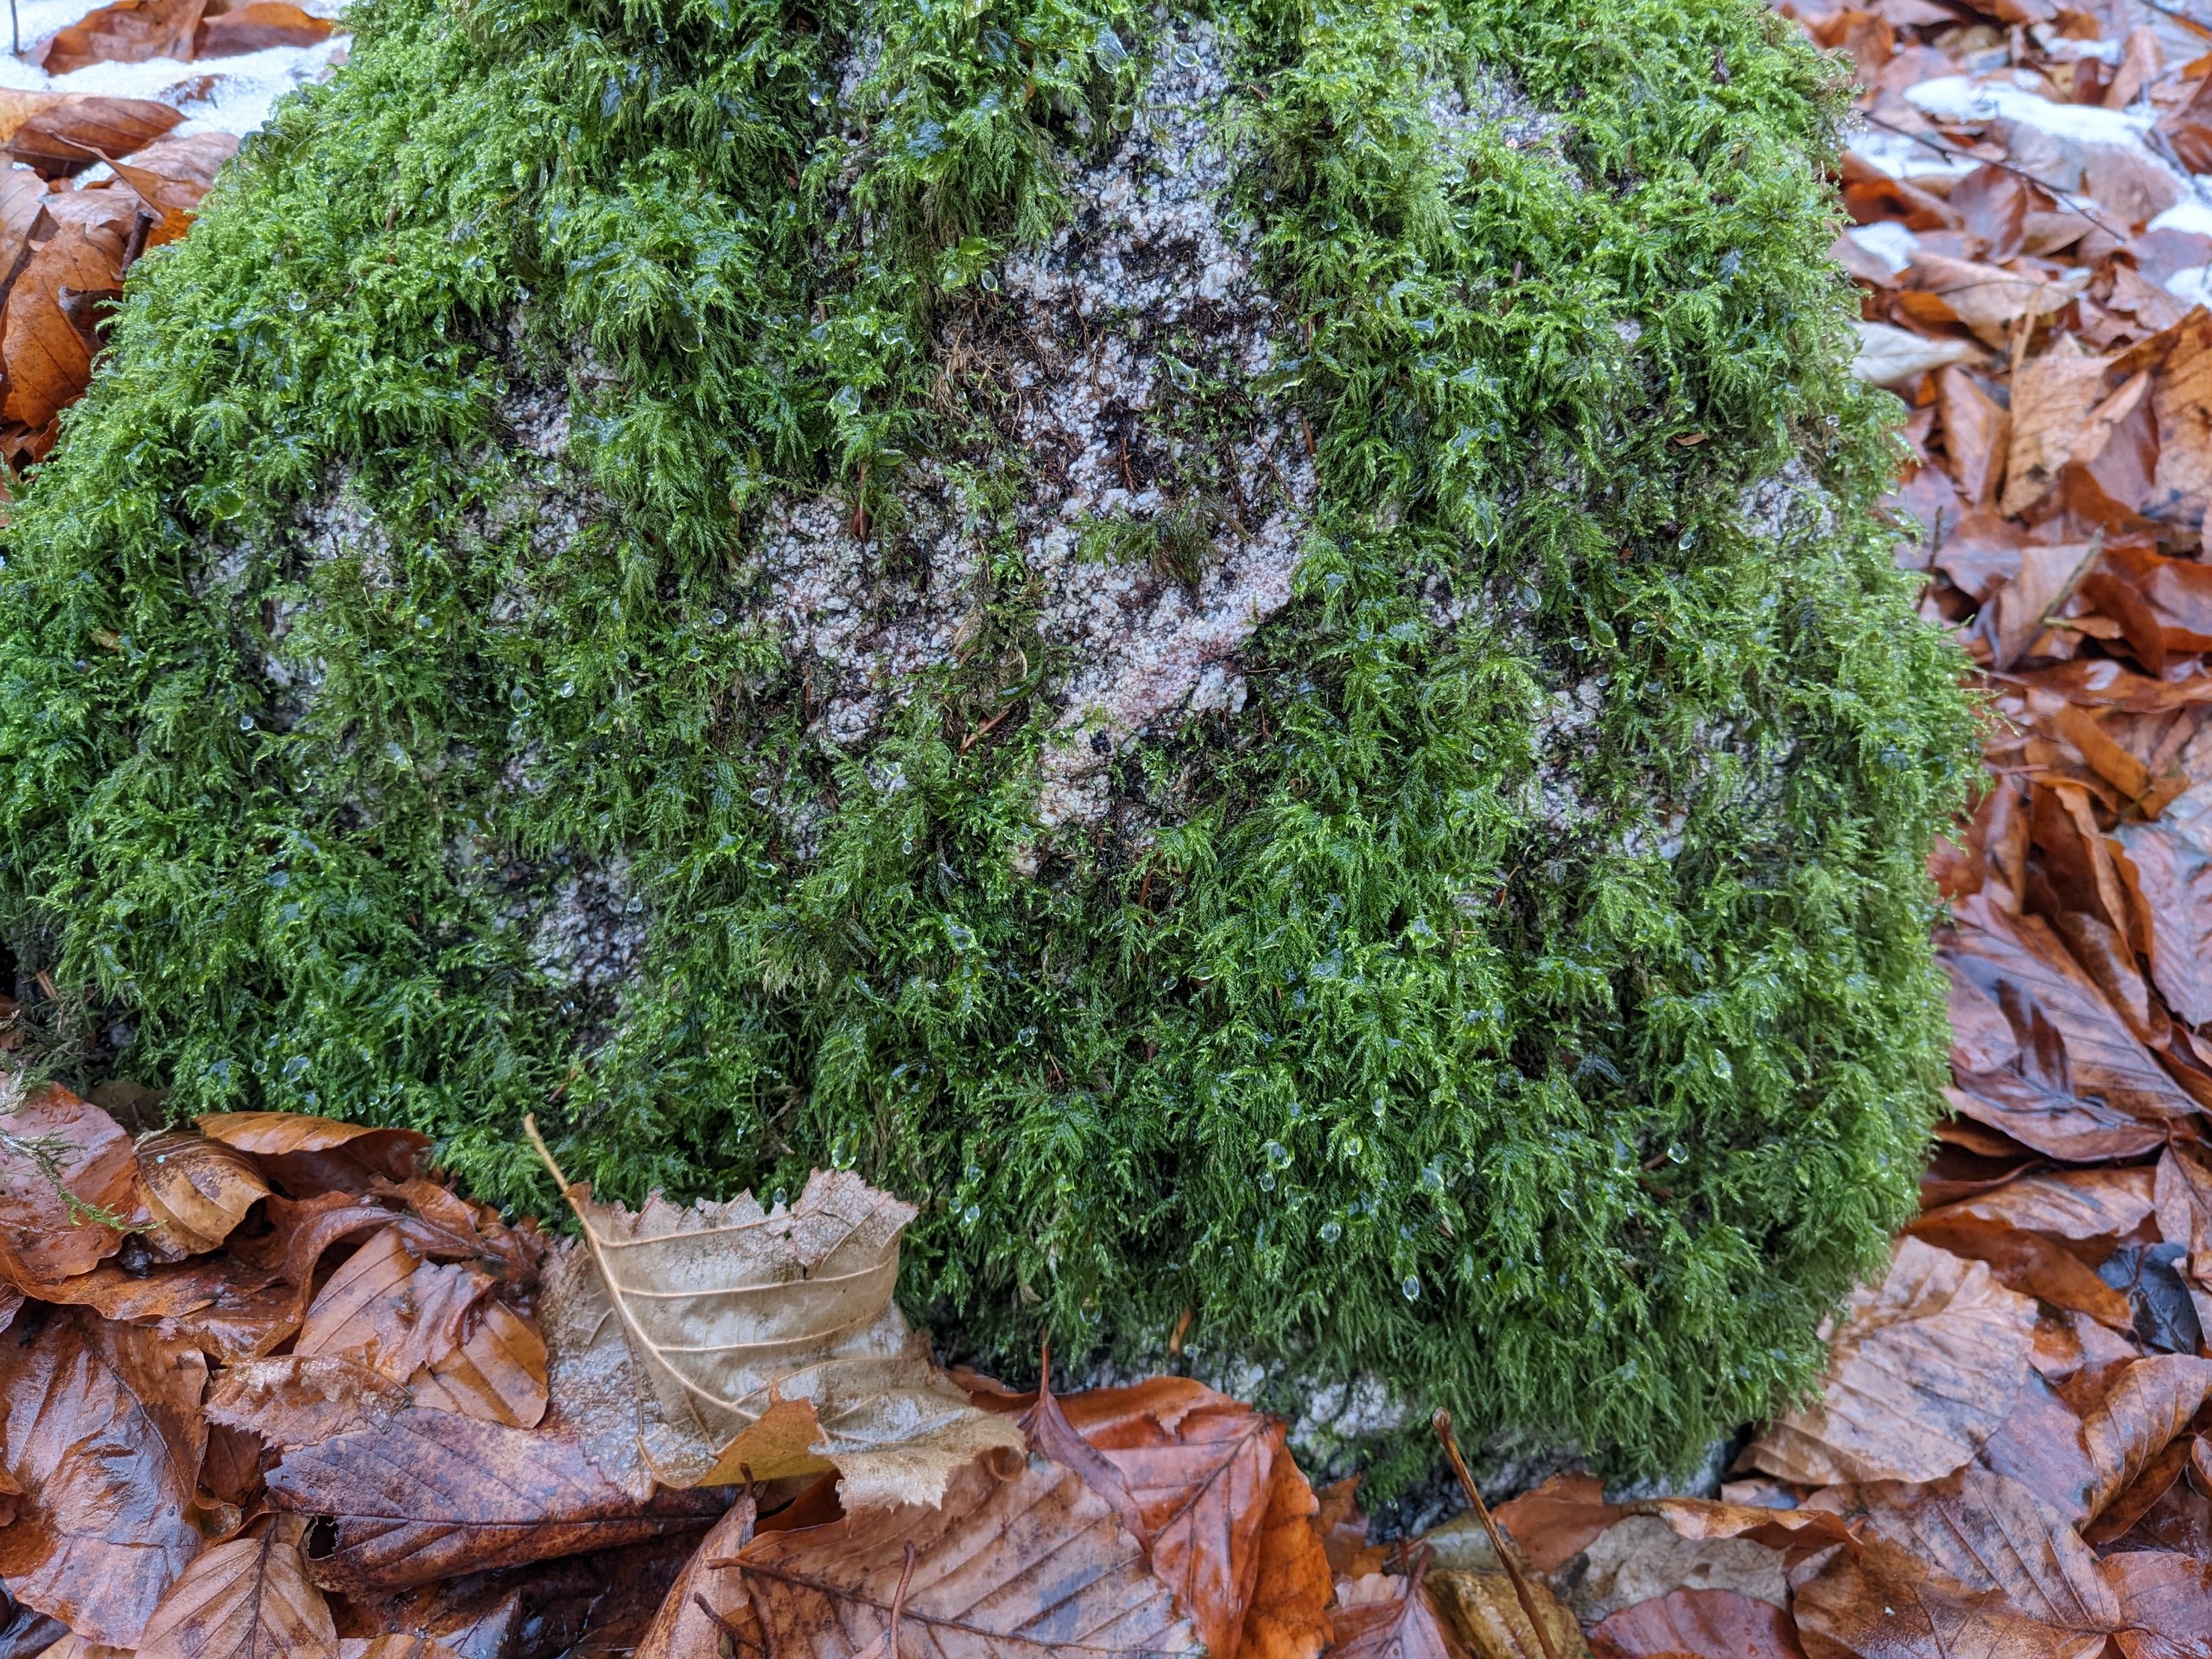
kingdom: Plantae
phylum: Bryophyta
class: Bryopsida
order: Hypnales
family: Lembophyllaceae
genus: Pseudisothecium
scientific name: Pseudisothecium myosuroides
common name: Slank stammemos
